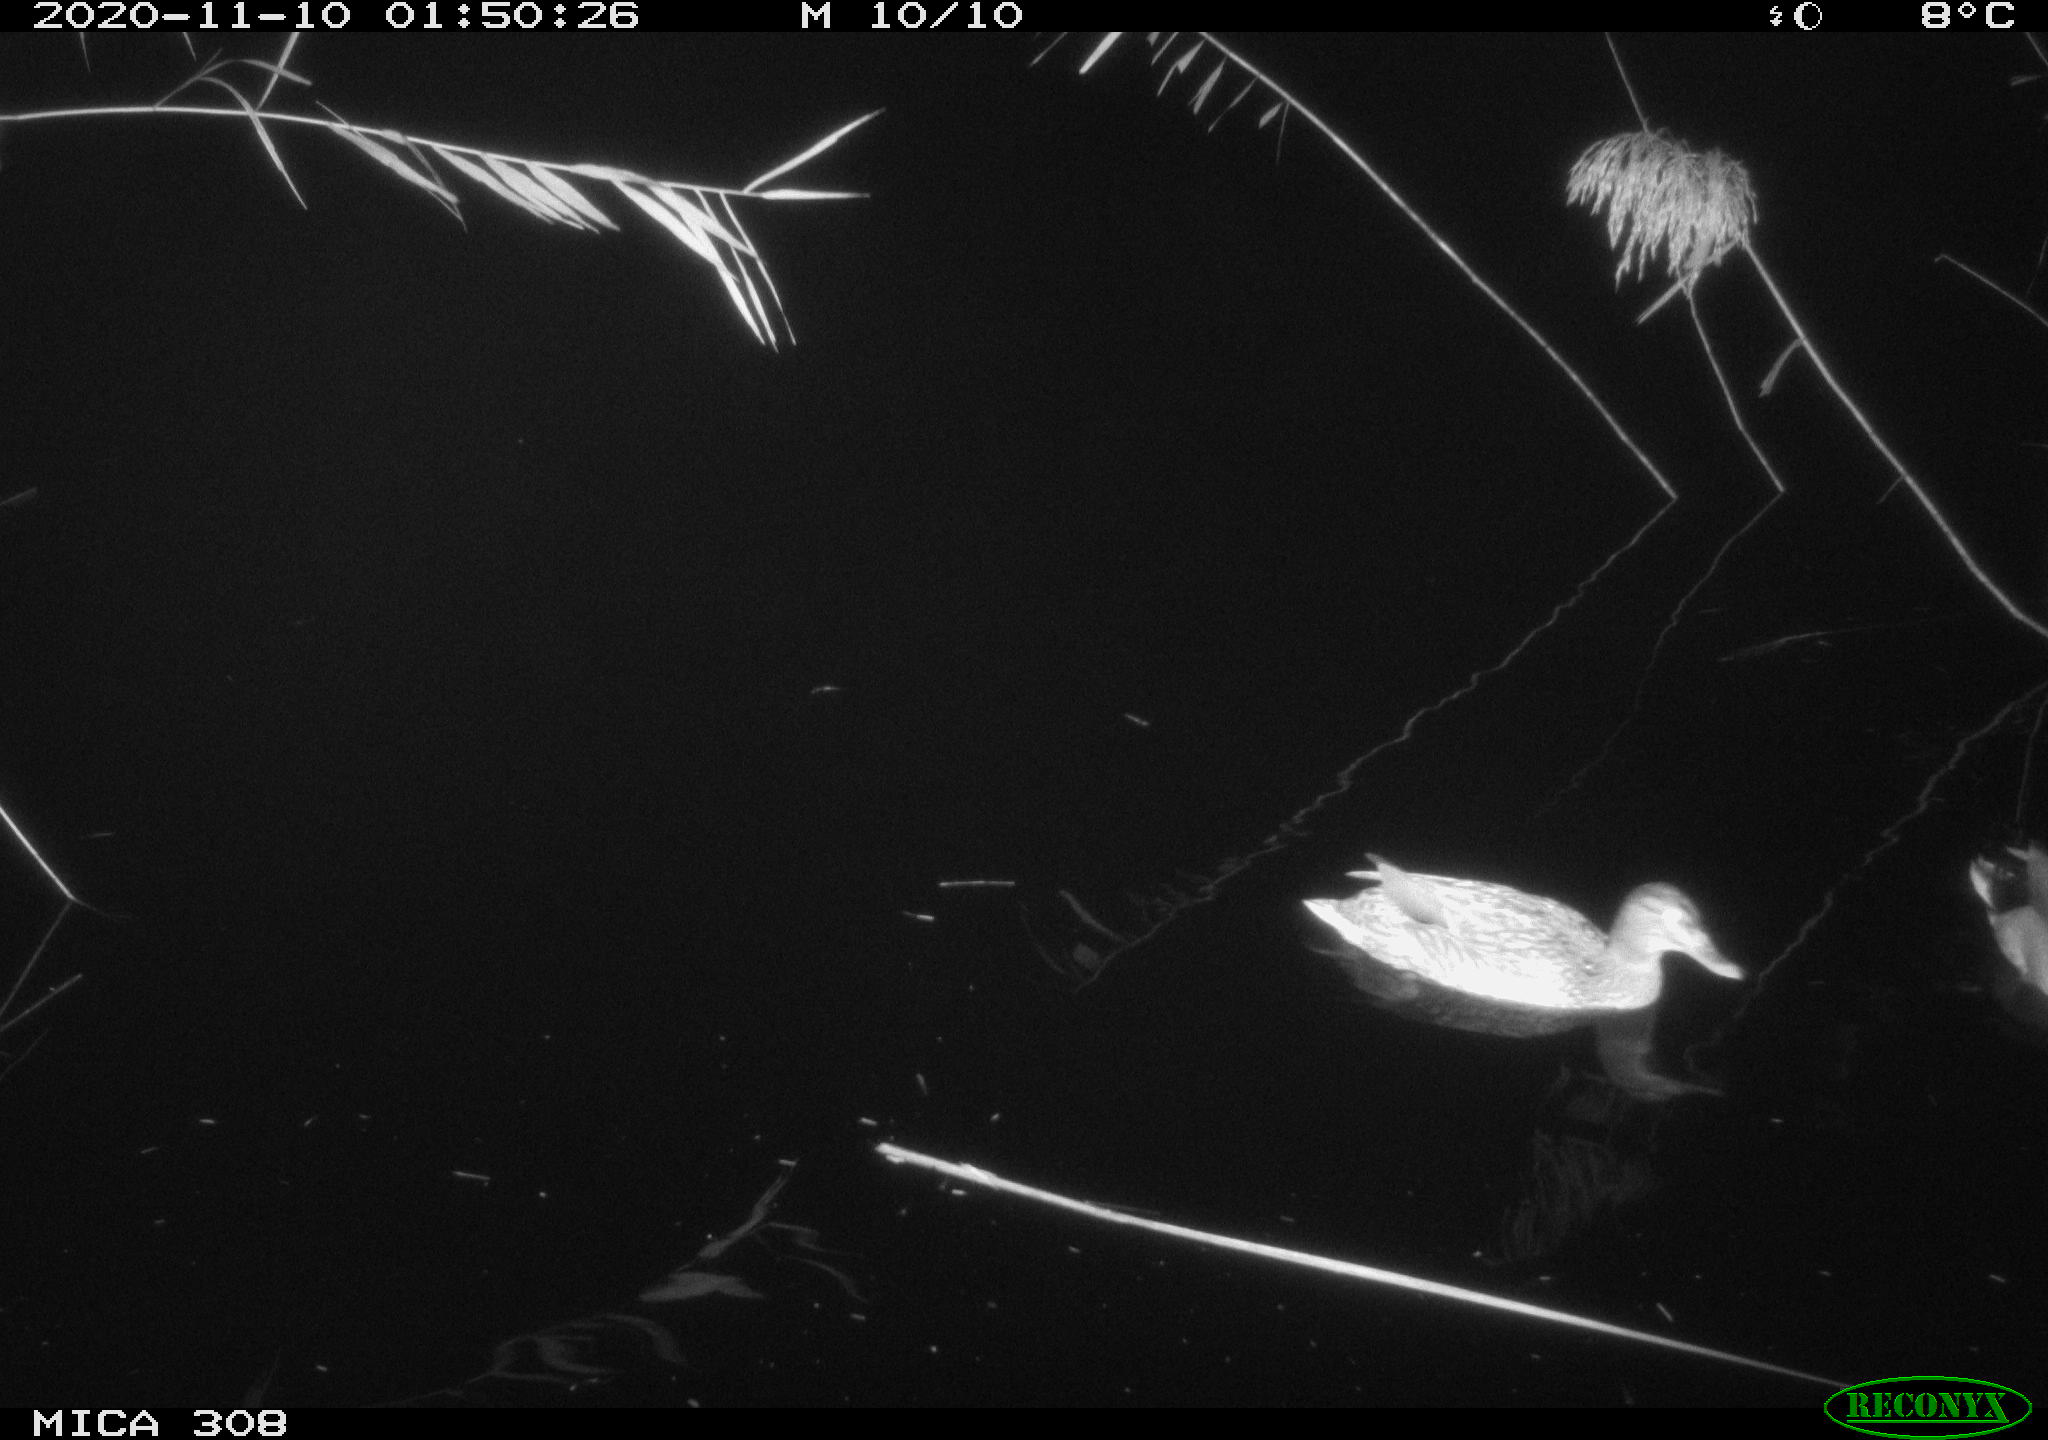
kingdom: Animalia
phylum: Chordata
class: Aves
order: Anseriformes
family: Anatidae
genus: Anas
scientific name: Anas platyrhynchos
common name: Mallard
